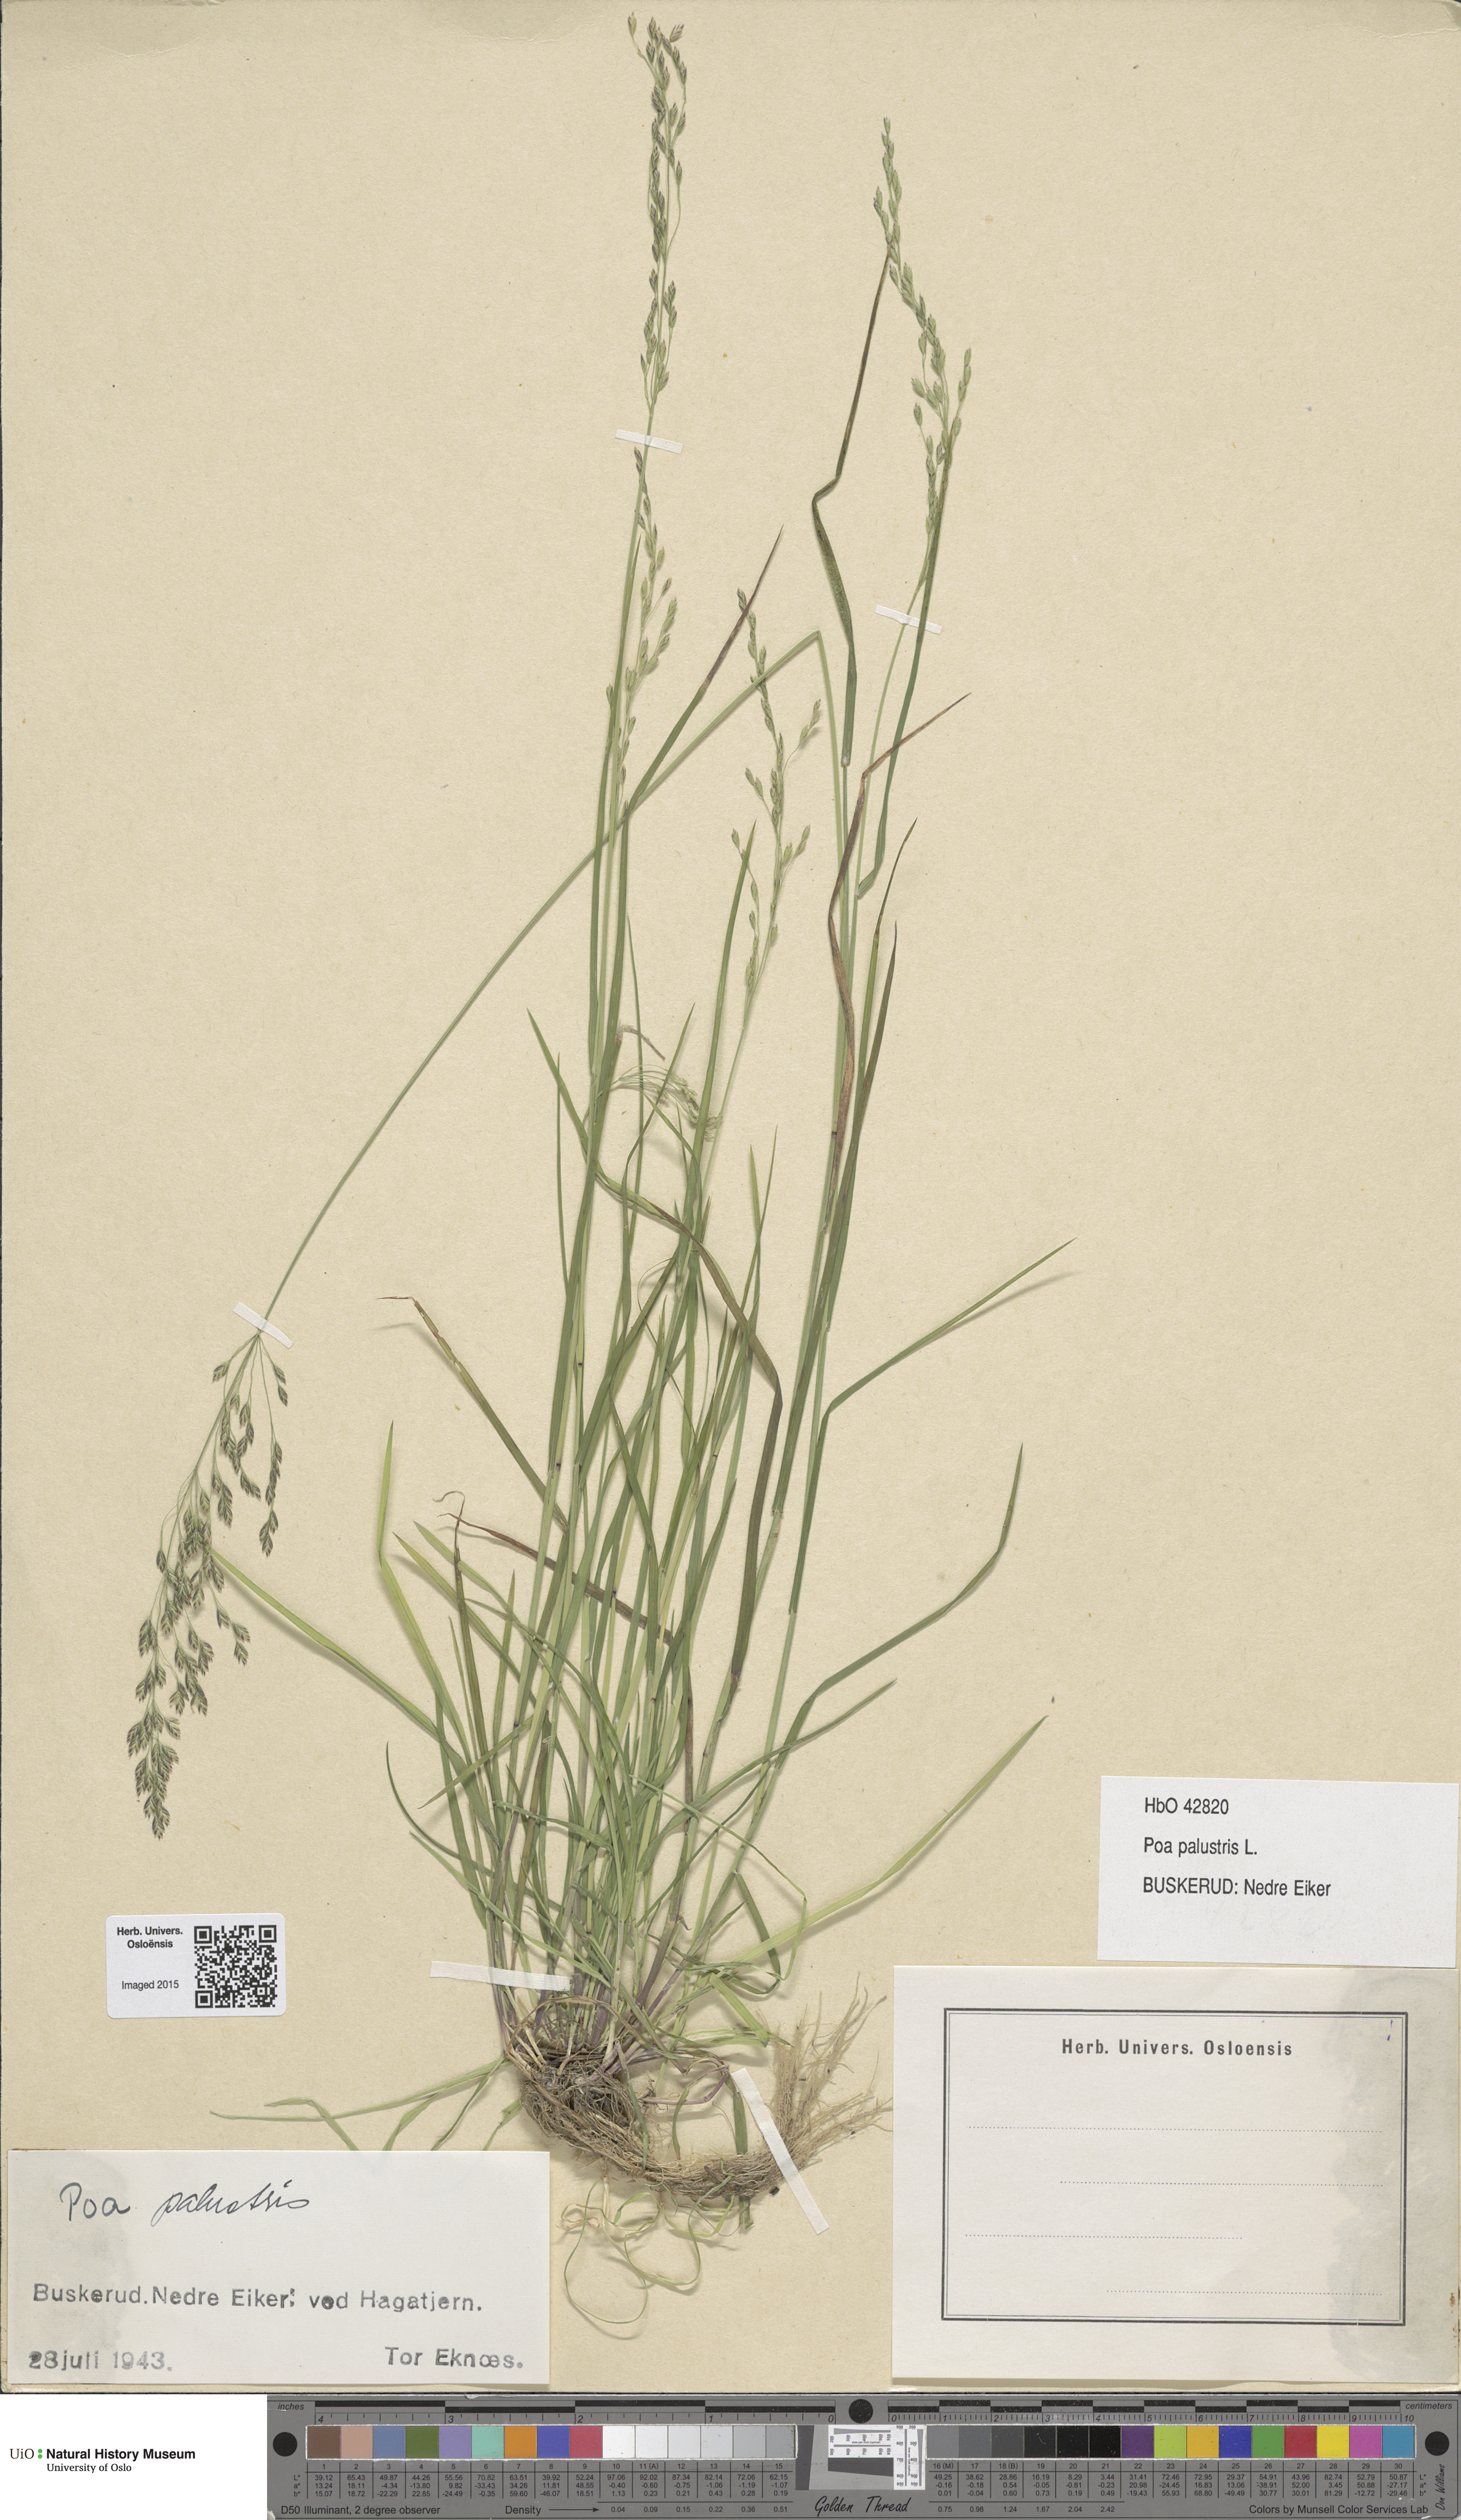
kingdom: Plantae
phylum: Tracheophyta
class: Liliopsida
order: Poales
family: Poaceae
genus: Poa
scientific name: Poa palustris
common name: Swamp meadow-grass
